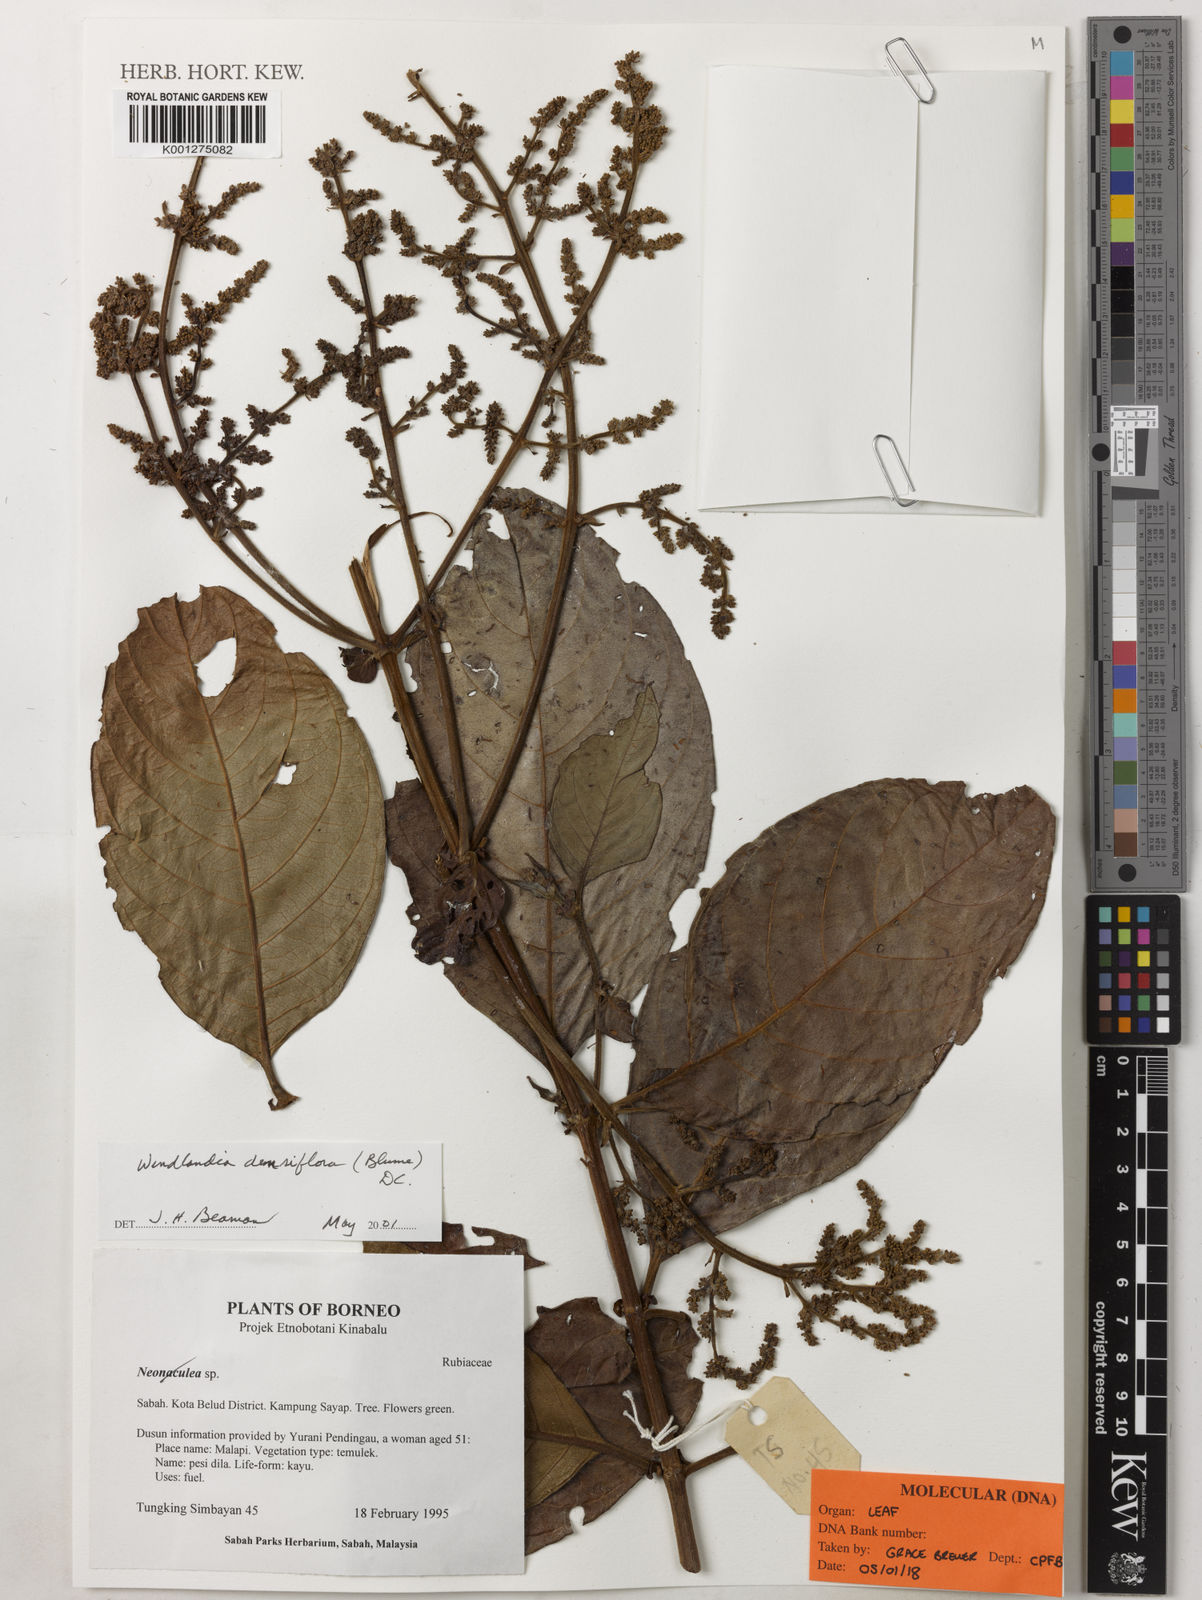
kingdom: Plantae
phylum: Tracheophyta
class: Magnoliopsida
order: Gentianales
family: Rubiaceae
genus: Wendlandia
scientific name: Wendlandia densiflora
